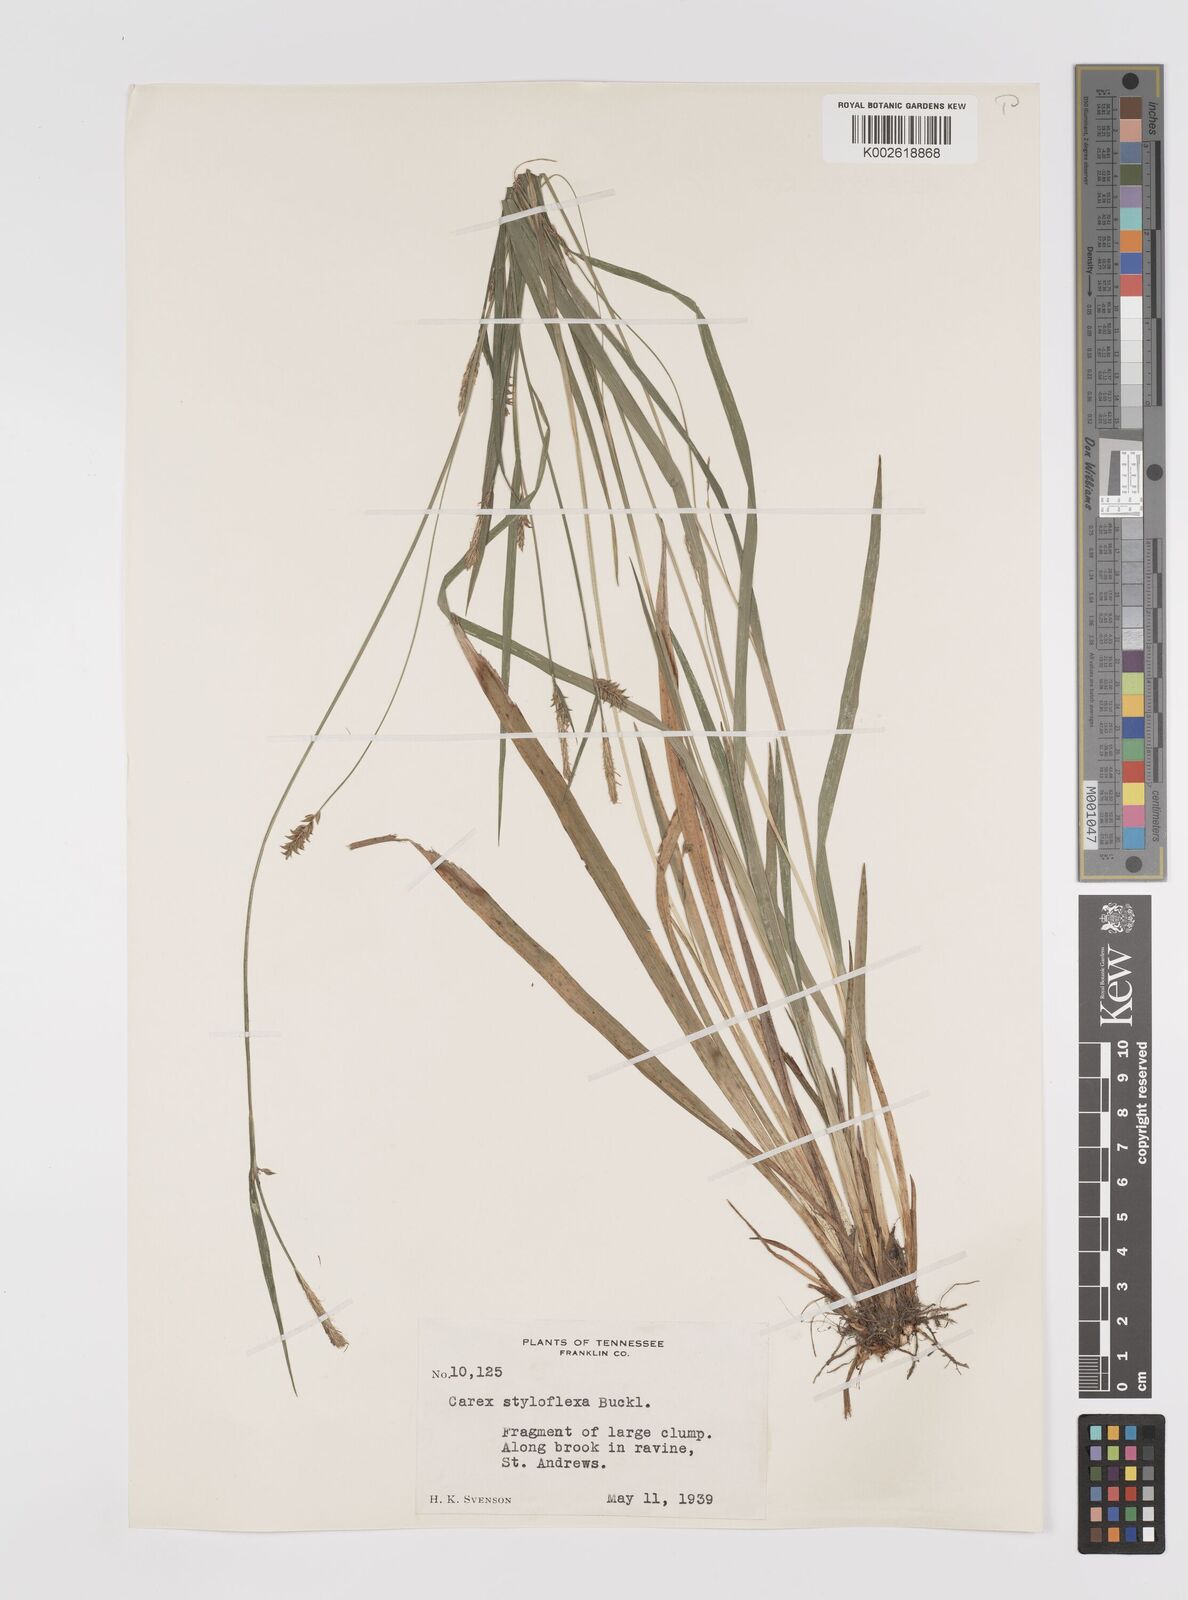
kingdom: Plantae
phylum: Tracheophyta
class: Liliopsida
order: Poales
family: Cyperaceae
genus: Carex
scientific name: Carex styloflexa
